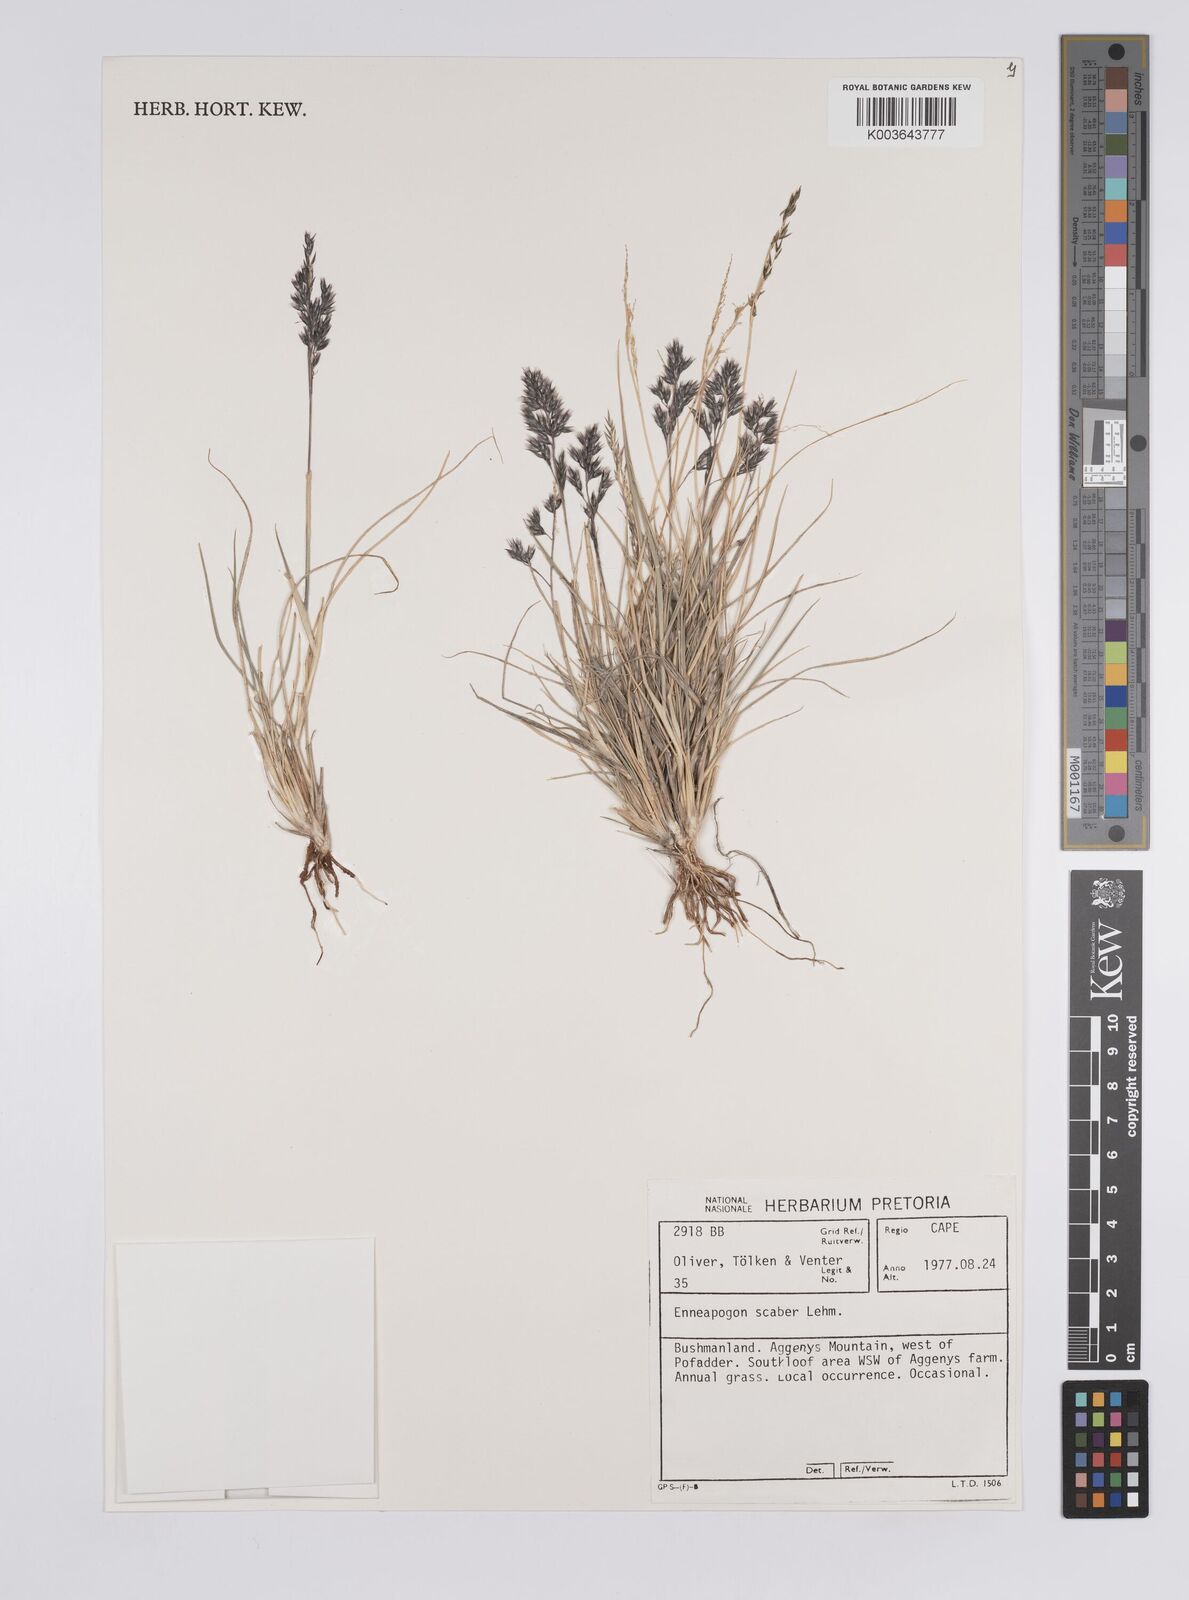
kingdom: Plantae
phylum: Tracheophyta
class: Liliopsida
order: Poales
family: Poaceae
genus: Enneapogon
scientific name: Enneapogon scaber
